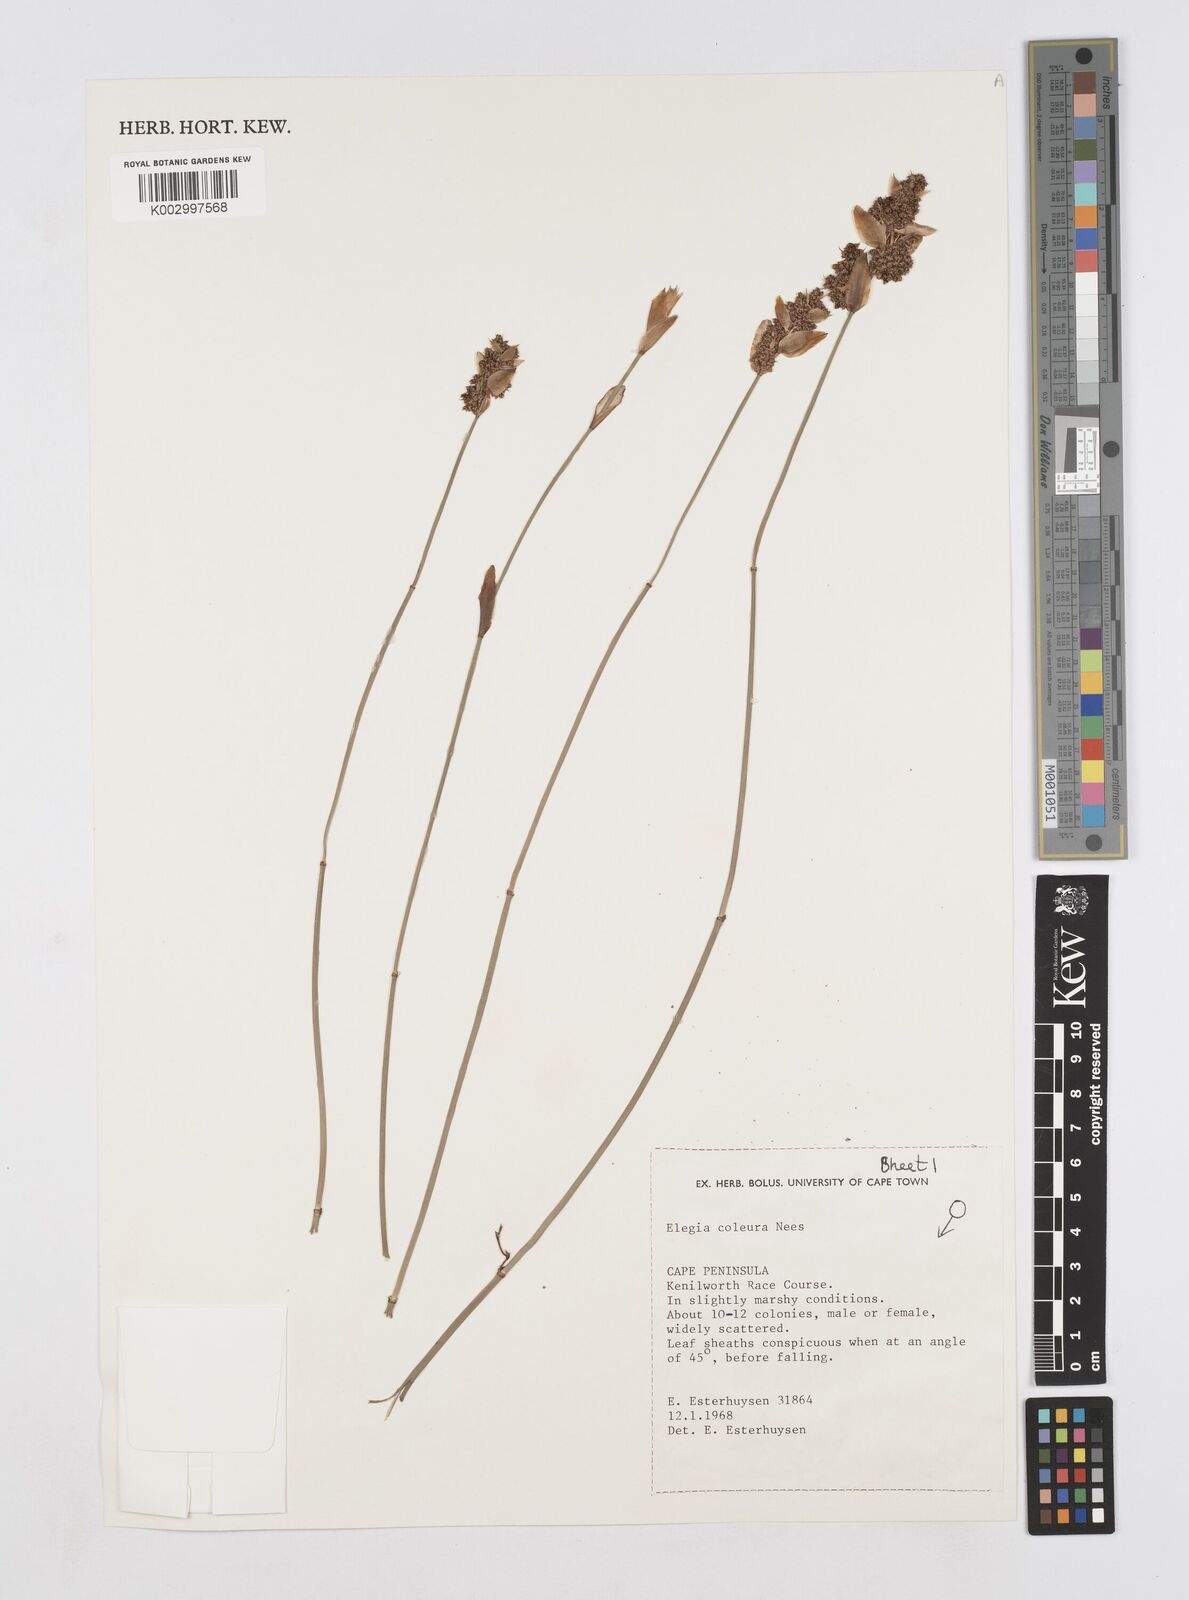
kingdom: Plantae
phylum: Tracheophyta
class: Liliopsida
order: Poales
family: Restionaceae
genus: Elegia
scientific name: Elegia coleura
